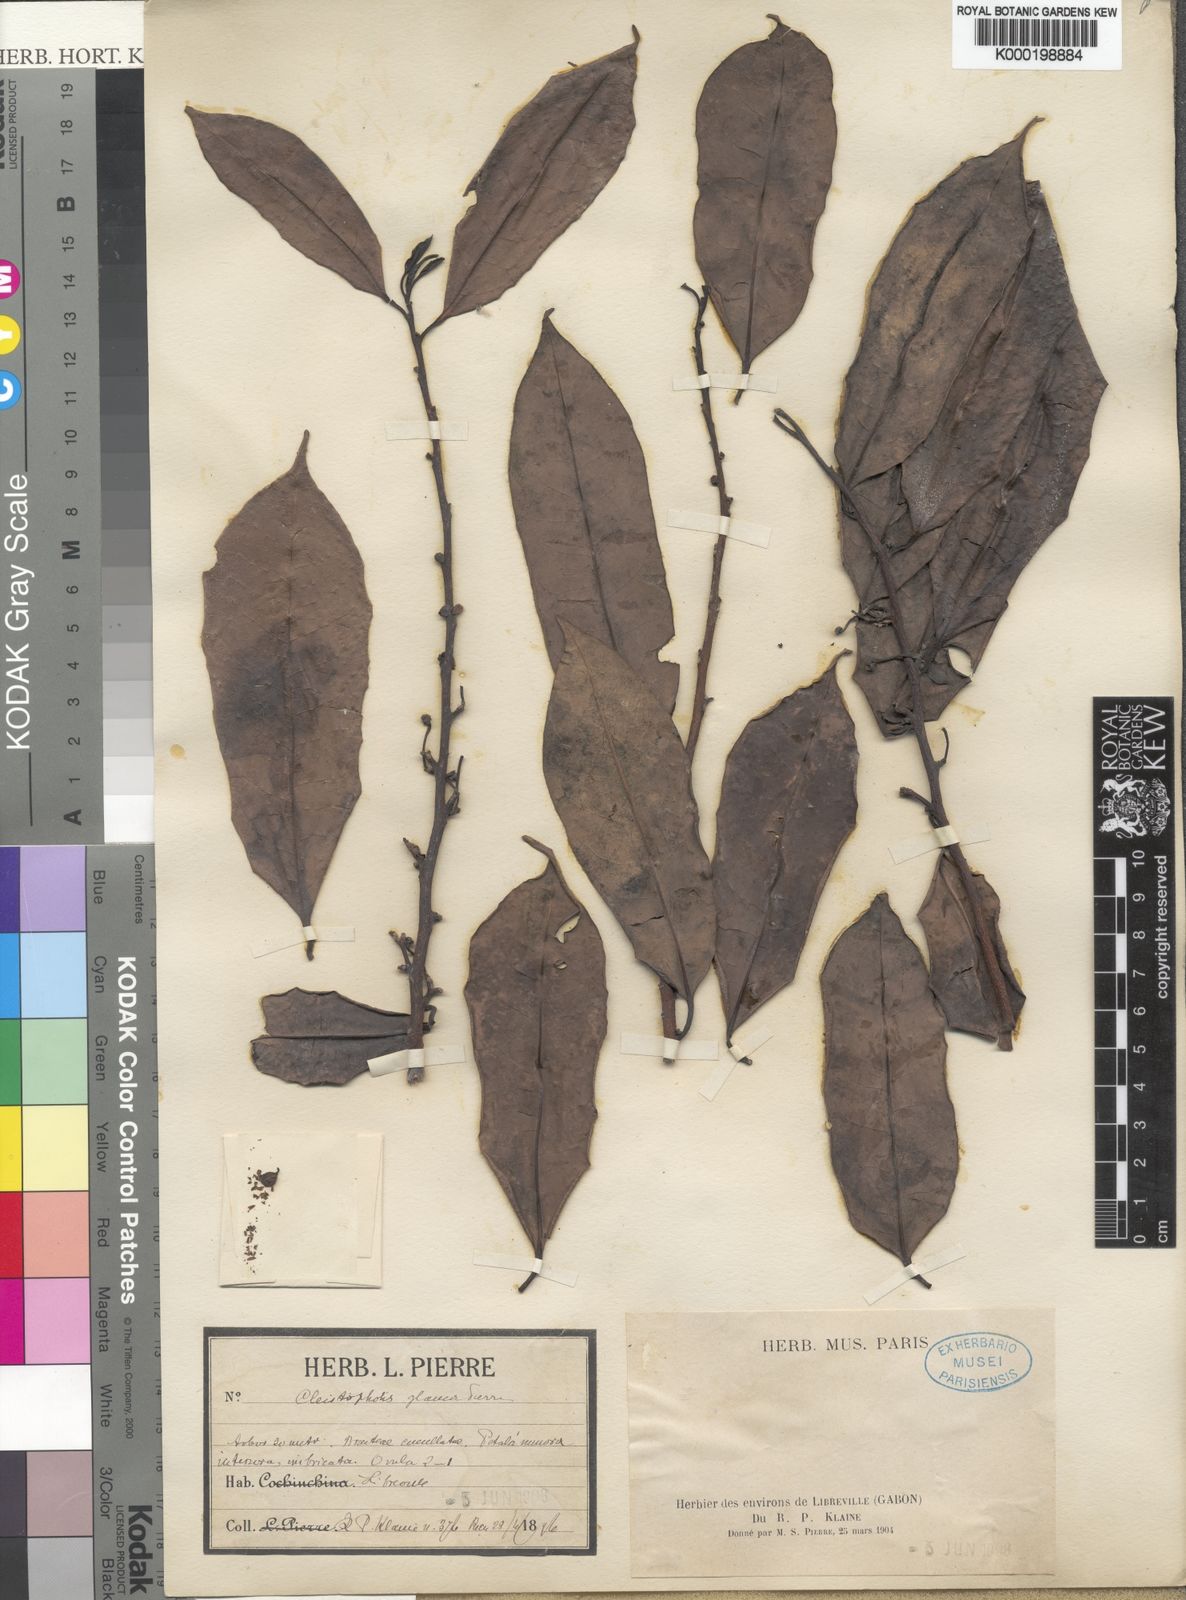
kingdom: Plantae
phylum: Tracheophyta
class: Magnoliopsida
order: Magnoliales
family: Annonaceae
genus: Cleistopholis
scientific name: Cleistopholis glauca
